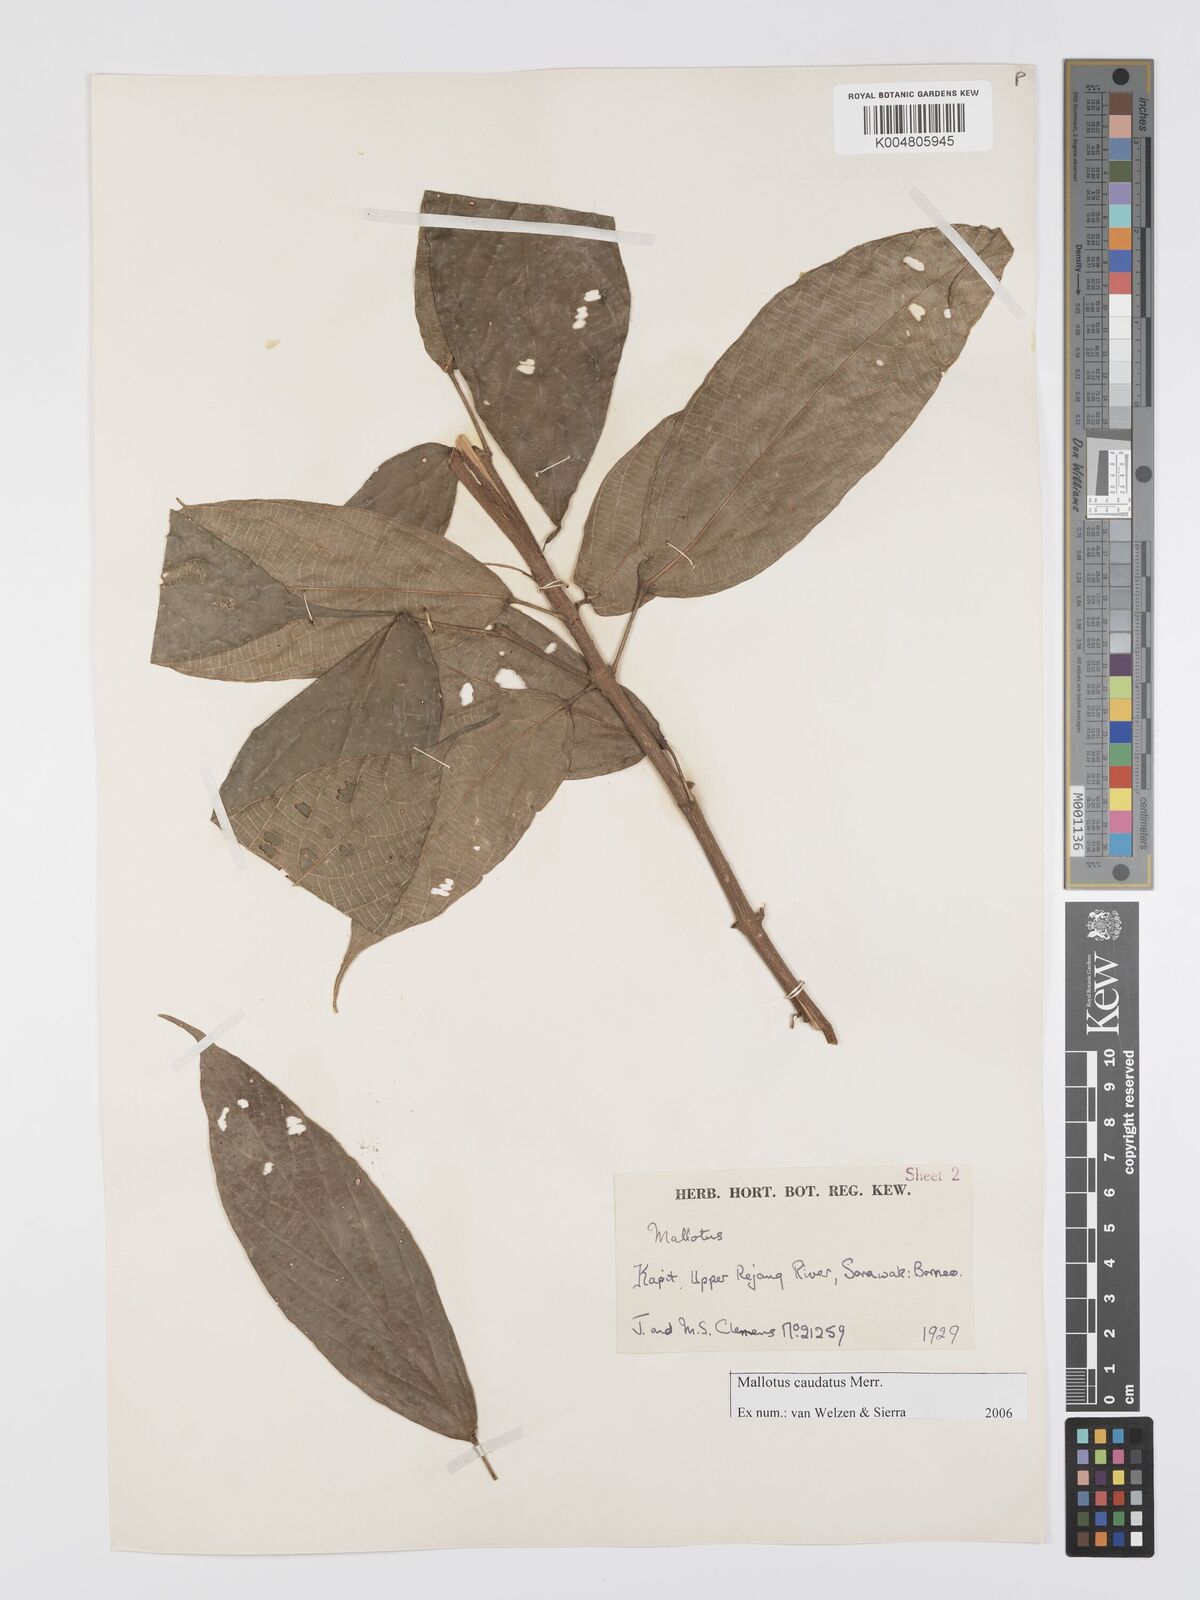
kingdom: Plantae
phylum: Tracheophyta
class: Magnoliopsida
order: Malpighiales
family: Euphorbiaceae
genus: Mallotus
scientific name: Mallotus caudatus
